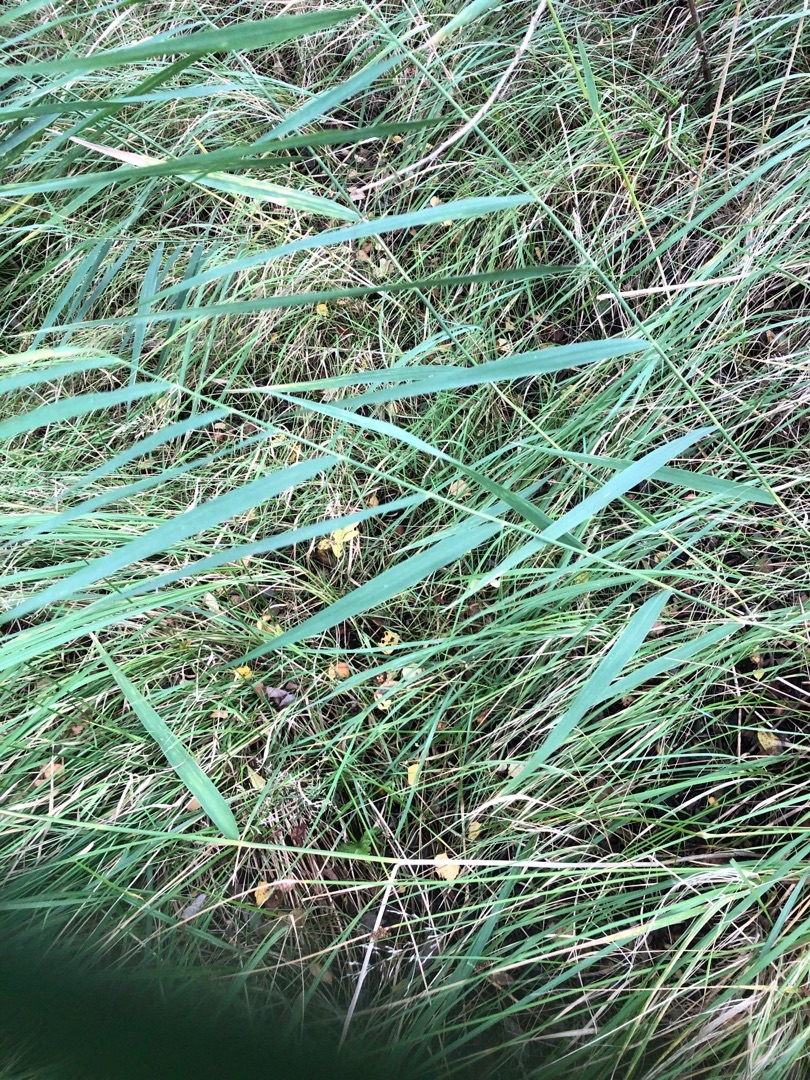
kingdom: Plantae
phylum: Tracheophyta
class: Liliopsida
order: Poales
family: Poaceae
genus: Phragmites
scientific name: Phragmites australis
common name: Tagrør
